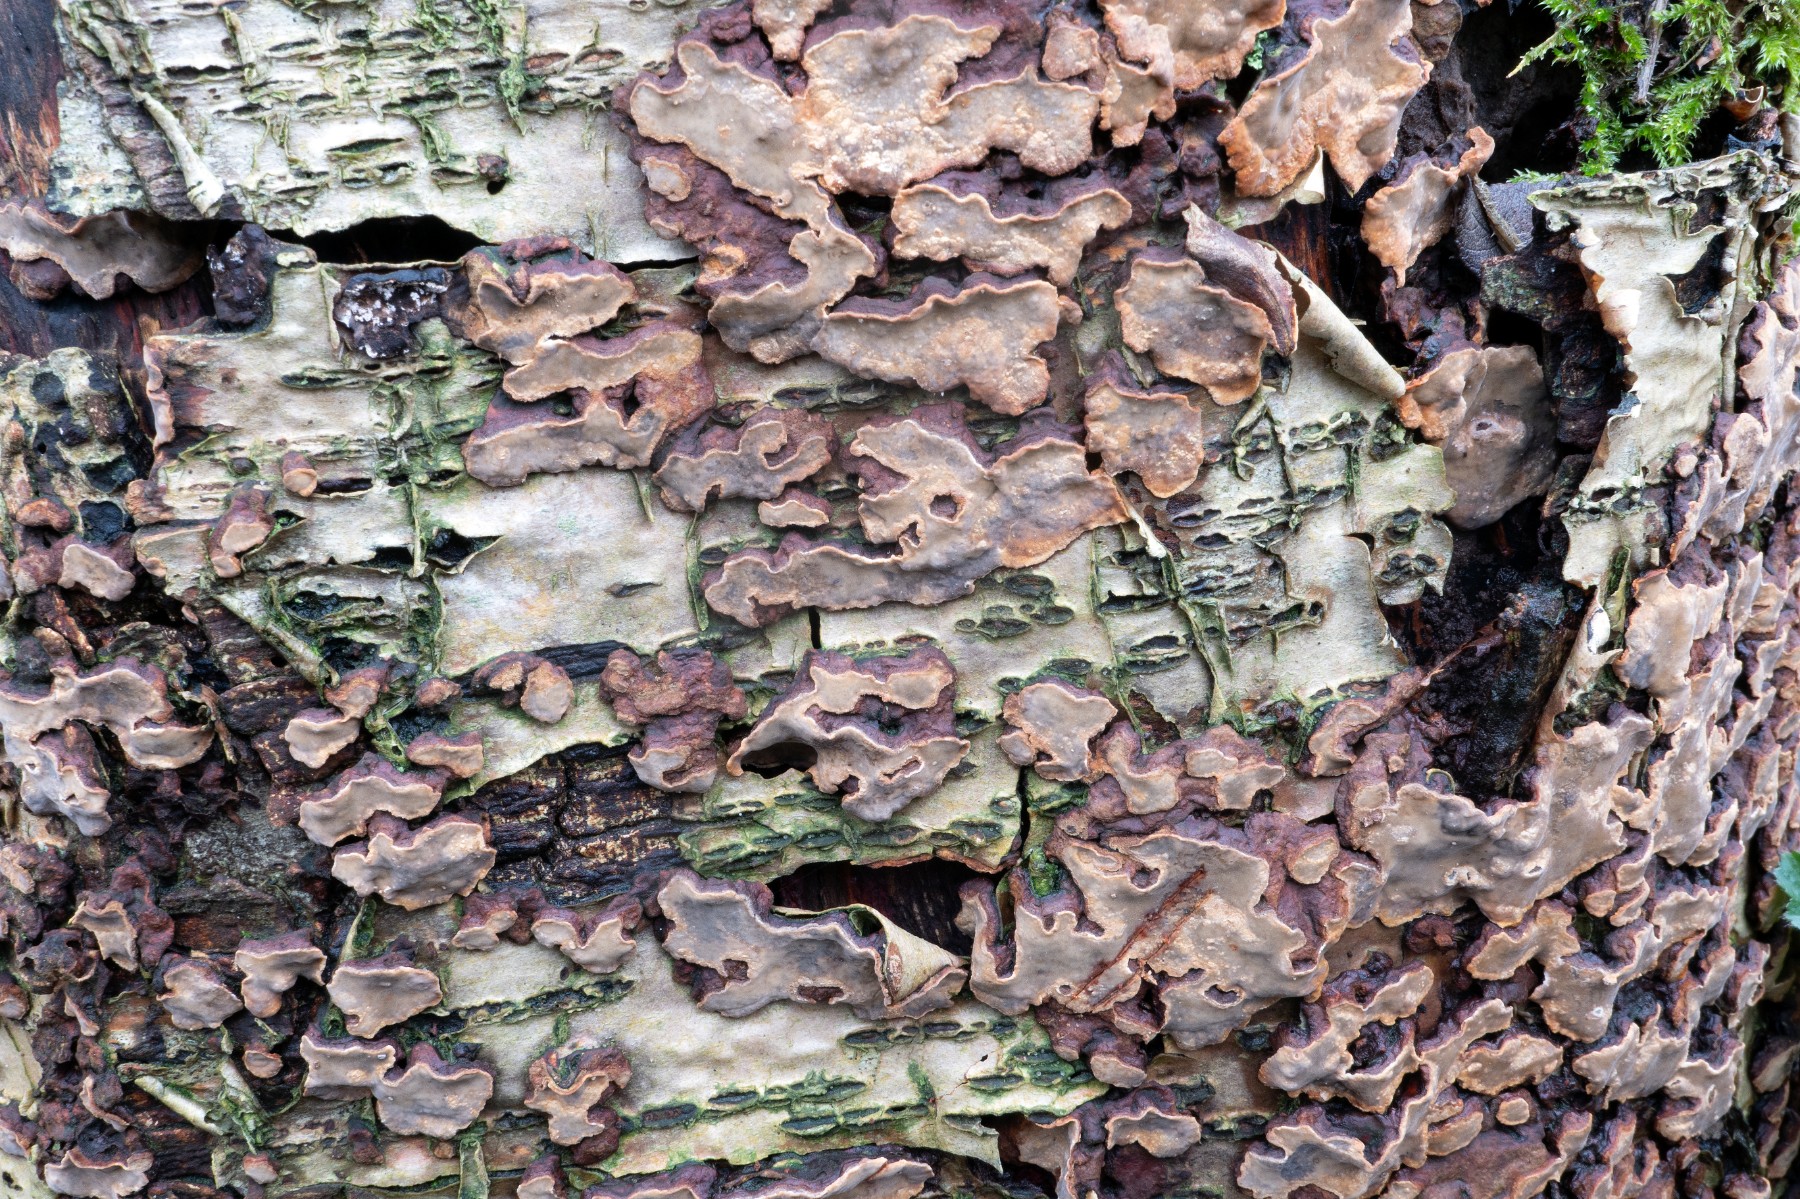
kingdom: Fungi
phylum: Basidiomycota
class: Agaricomycetes
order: Russulales
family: Stereaceae
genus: Stereum
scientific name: Stereum rugosum
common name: rynket lædersvamp
